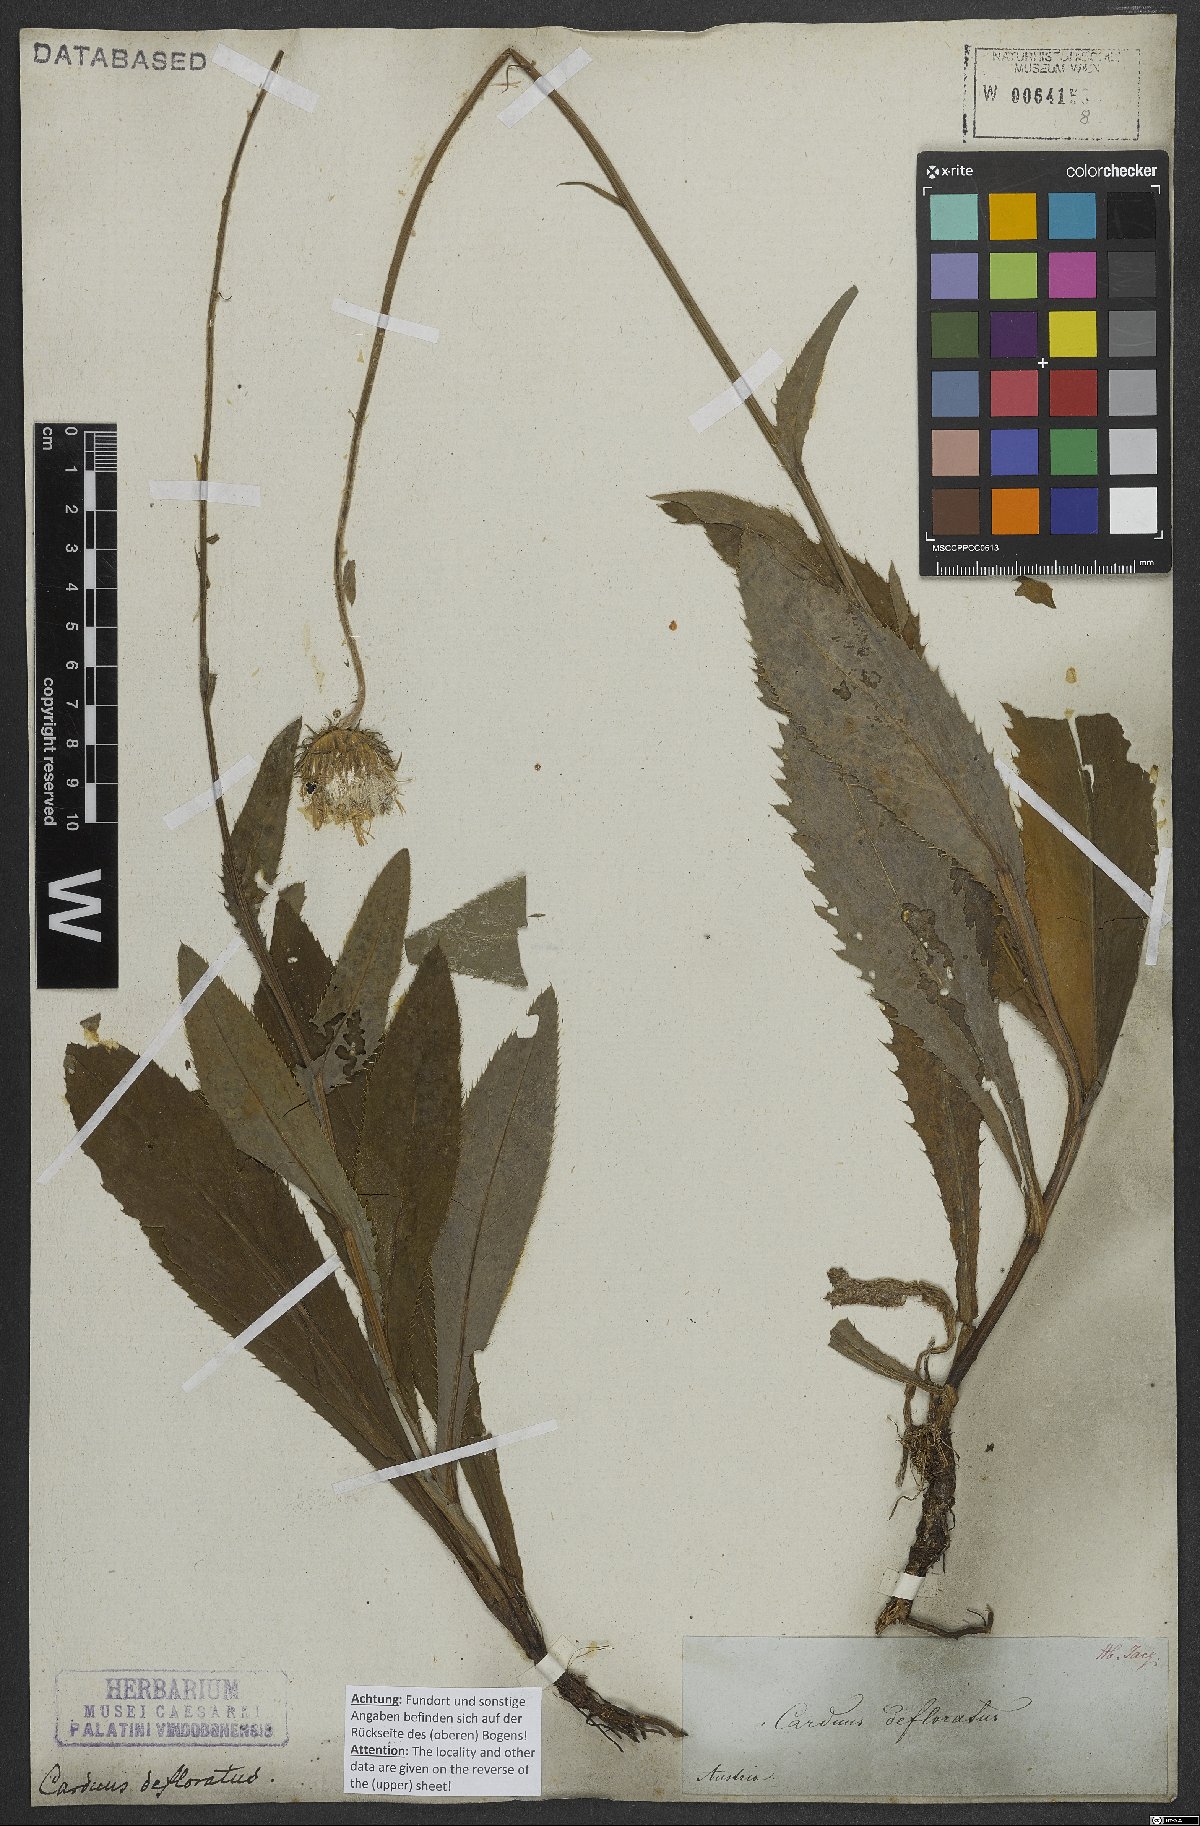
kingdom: Plantae
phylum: Tracheophyta
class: Magnoliopsida
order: Asterales
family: Asteraceae
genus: Carduus
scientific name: Carduus defloratus
